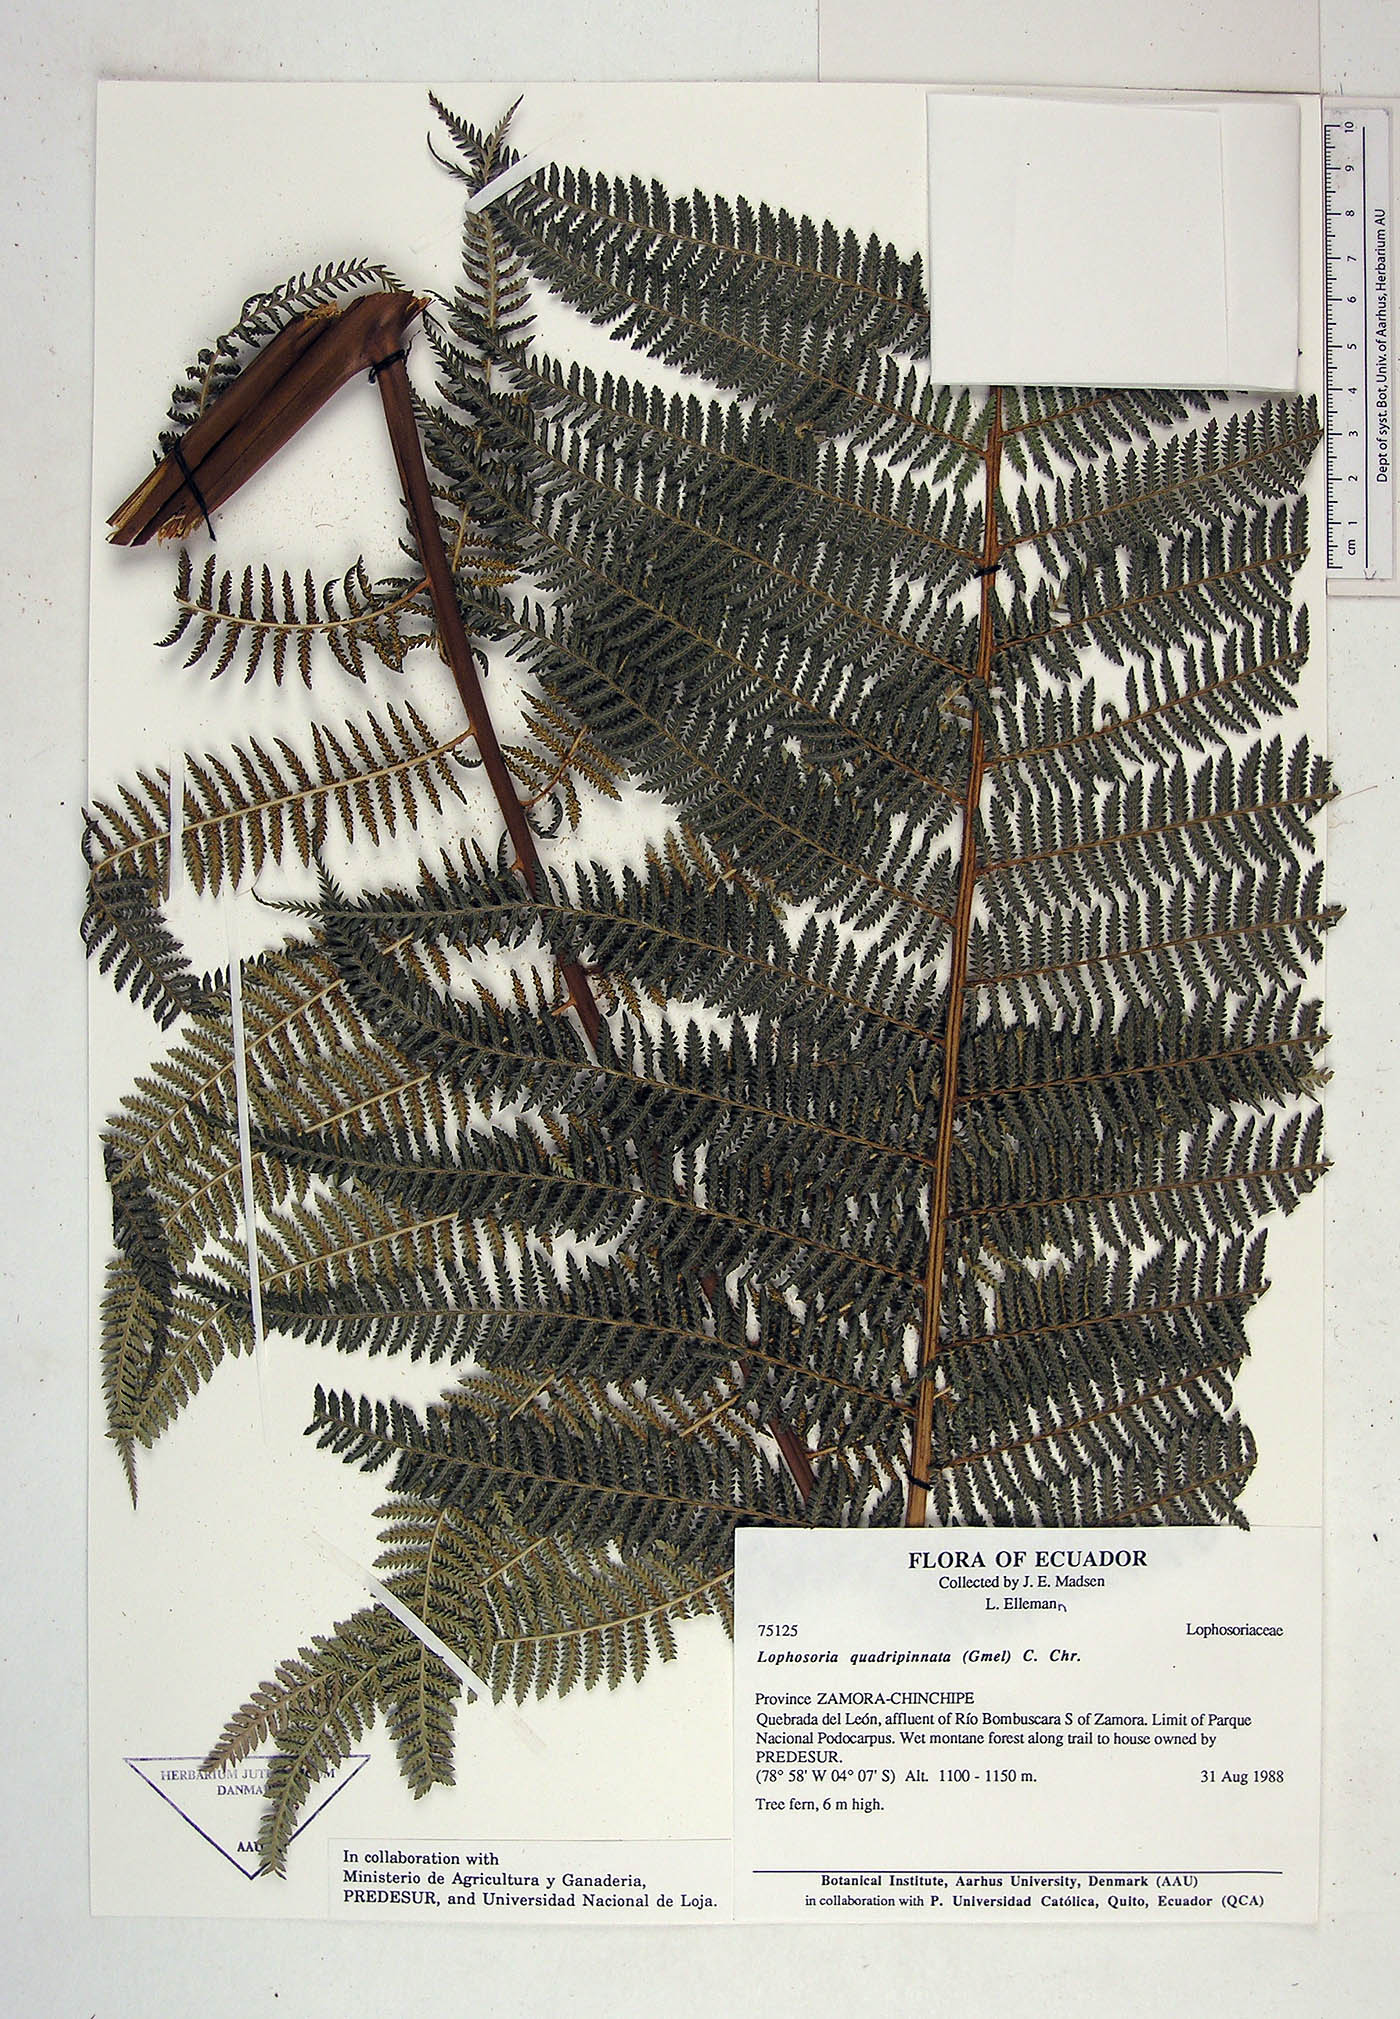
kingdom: Plantae
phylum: Tracheophyta
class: Polypodiopsida
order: Cyatheales
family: Dicksoniaceae
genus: Lophosoria
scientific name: Lophosoria quadripinnata
